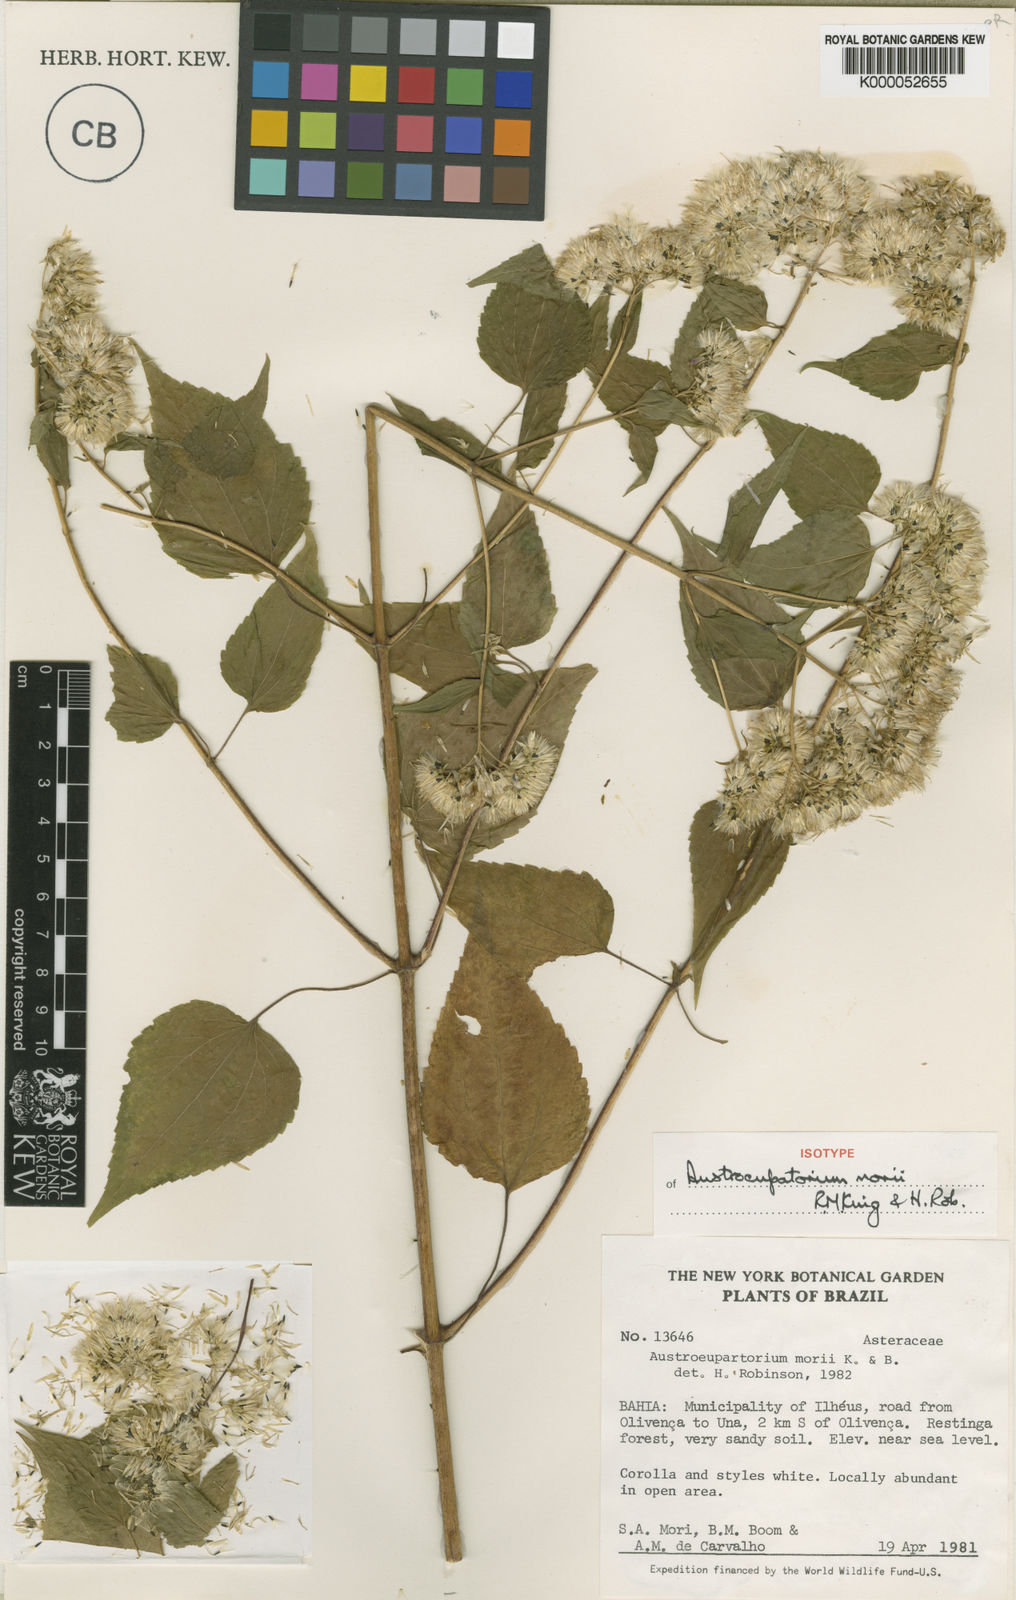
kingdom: Plantae
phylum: Tracheophyta
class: Magnoliopsida
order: Asterales
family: Asteraceae
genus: Austroeupatorium
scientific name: Austroeupatorium morii
